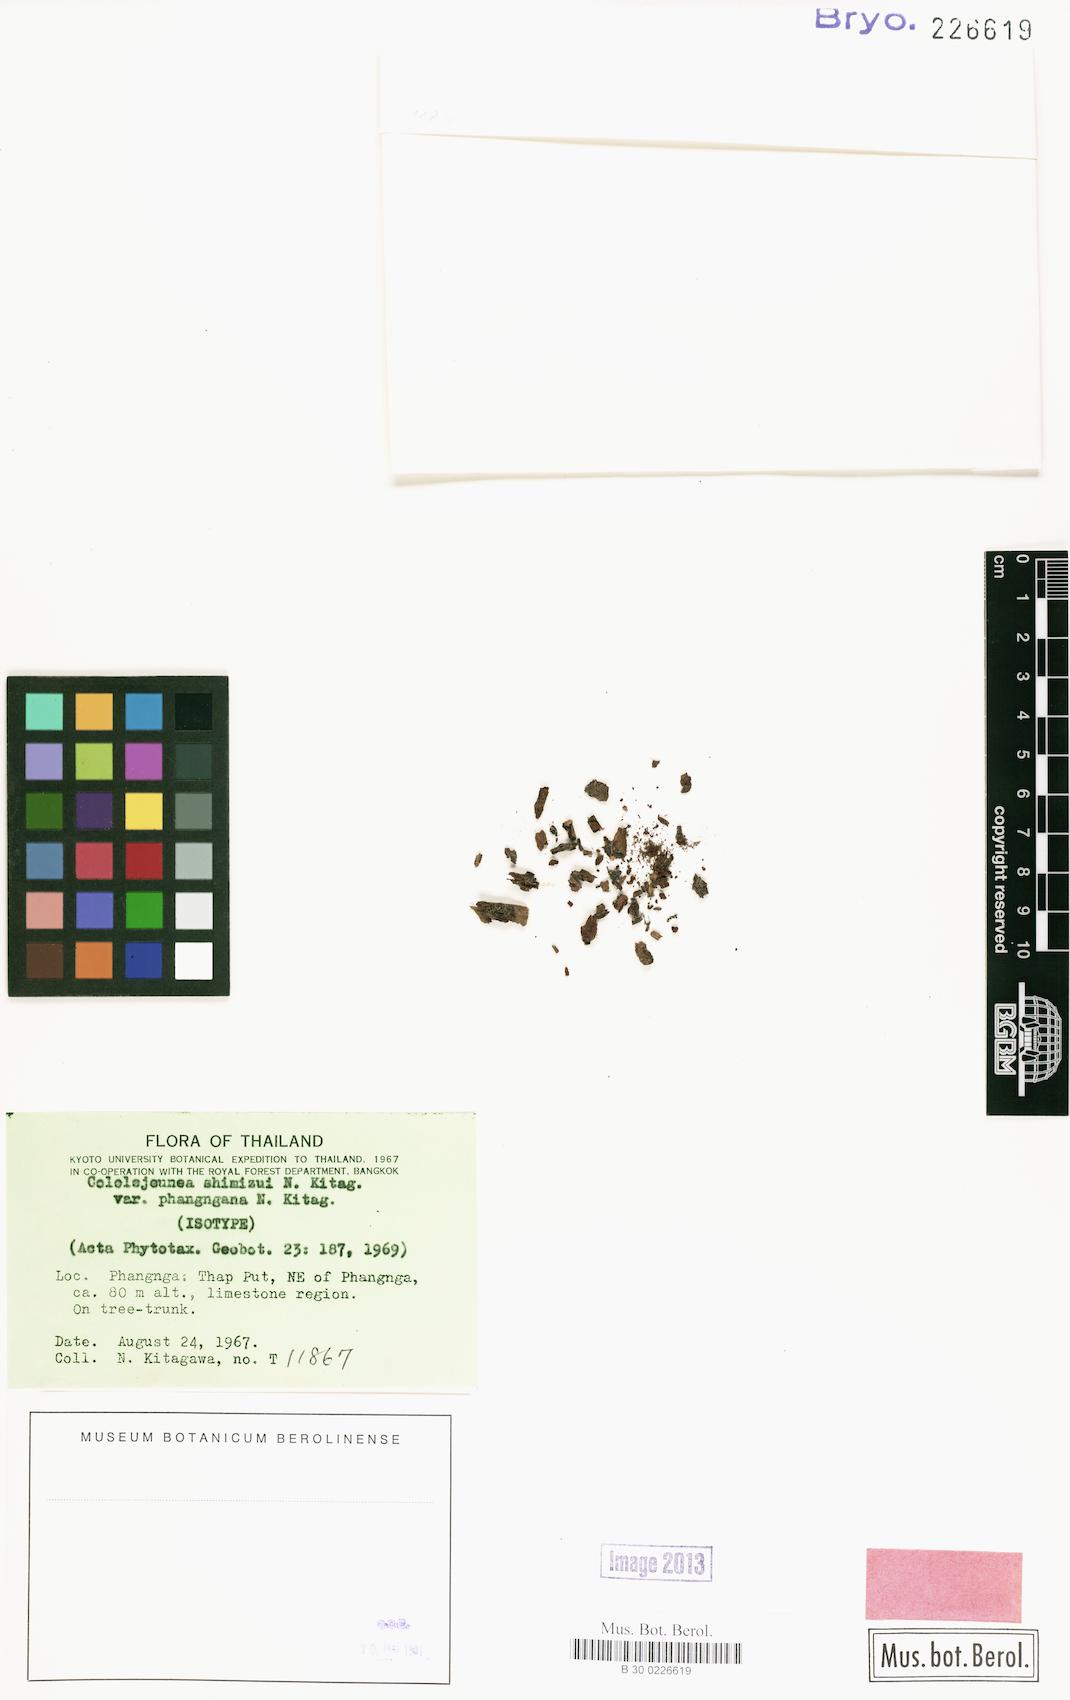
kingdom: Plantae
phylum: Marchantiophyta
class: Jungermanniopsida
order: Porellales
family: Lejeuneaceae
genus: Cololejeunea
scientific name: Cololejeunea shimizui
